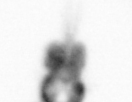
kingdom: Animalia
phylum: Arthropoda
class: Copepoda
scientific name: Copepoda
